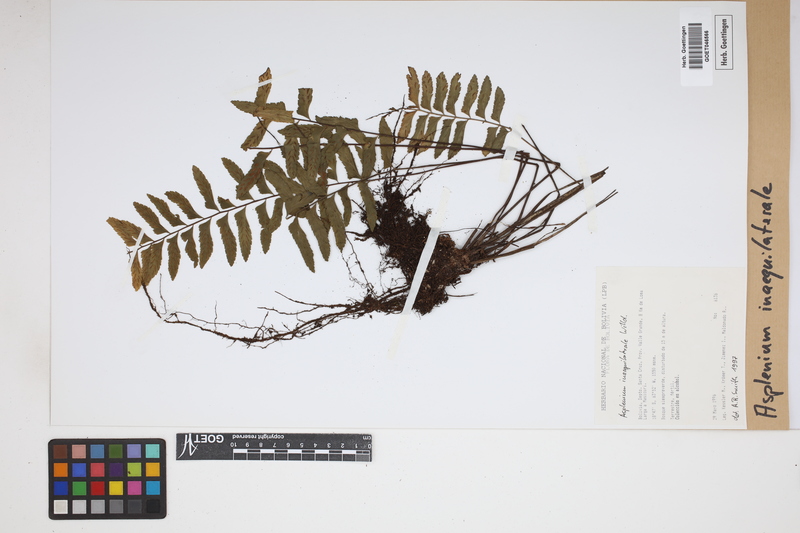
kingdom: Plantae
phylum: Tracheophyta
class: Polypodiopsida
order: Polypodiales
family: Aspleniaceae
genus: Asplenium
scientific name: Asplenium inaequilaterale
